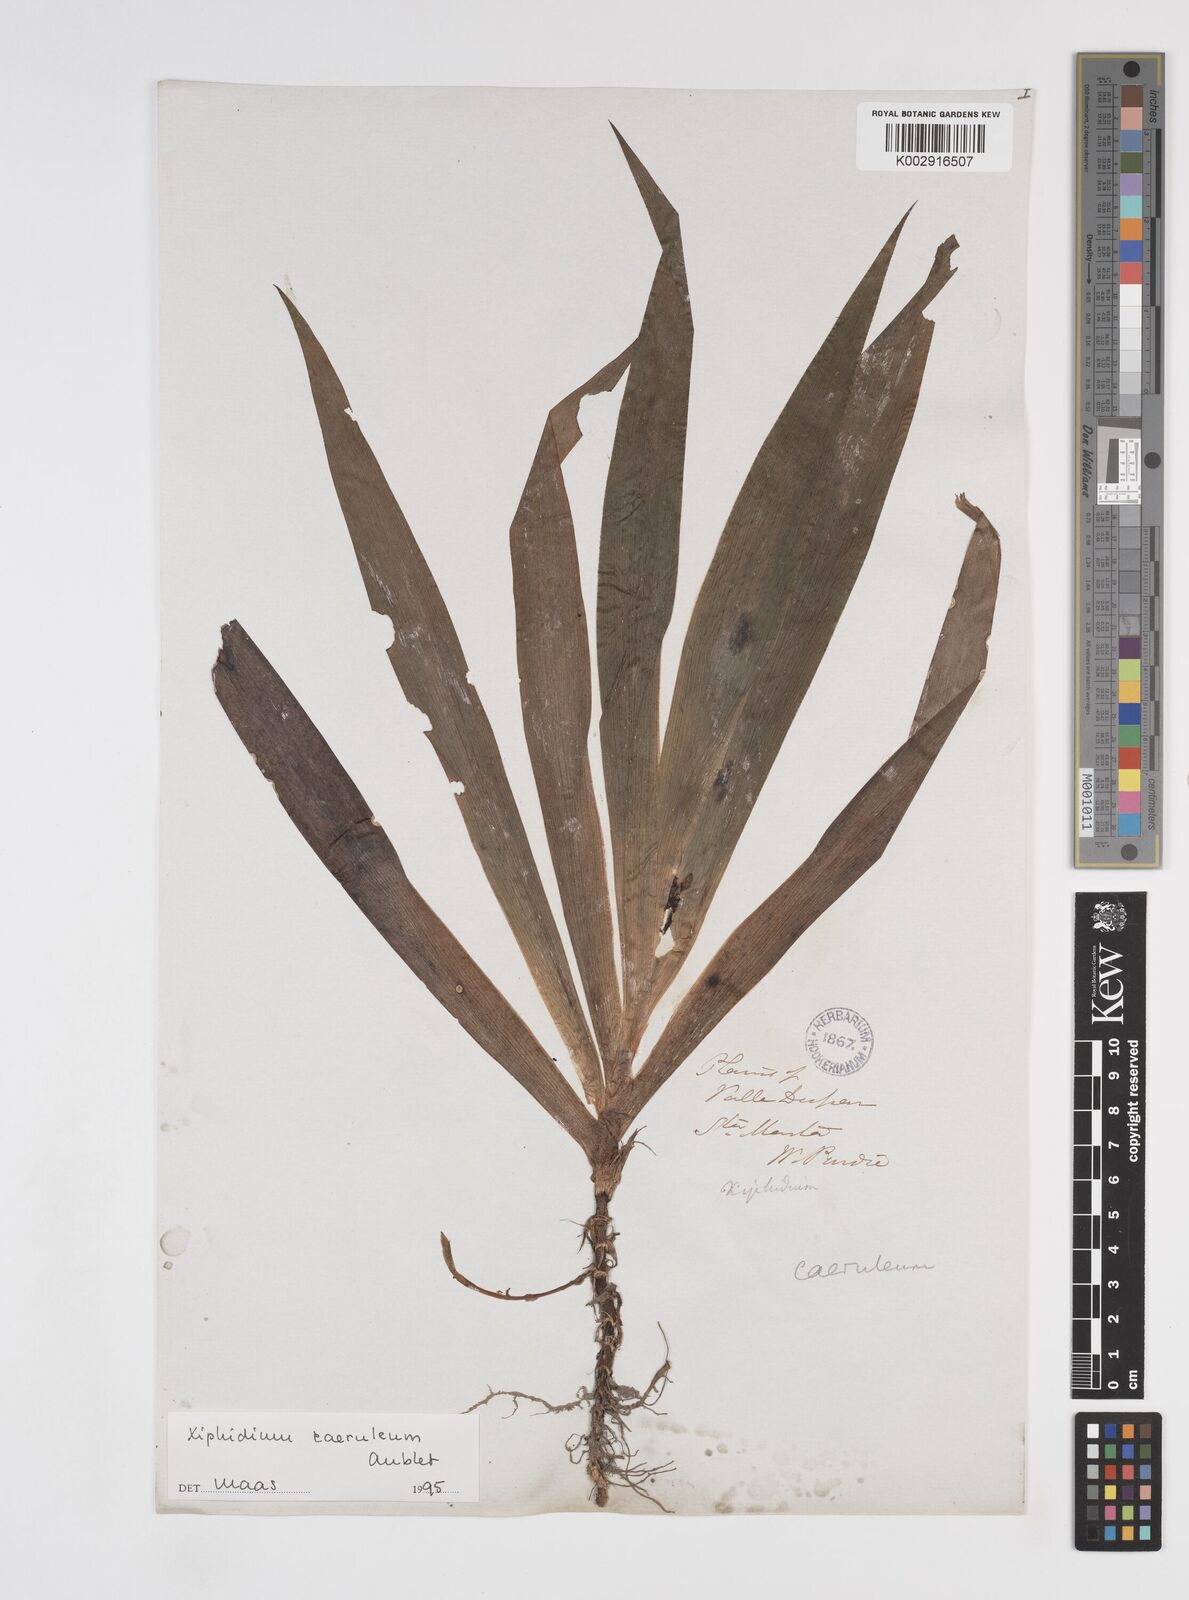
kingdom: Plantae
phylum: Tracheophyta
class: Liliopsida
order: Commelinales
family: Haemodoraceae
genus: Xiphidium
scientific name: Xiphidium caeruleum
